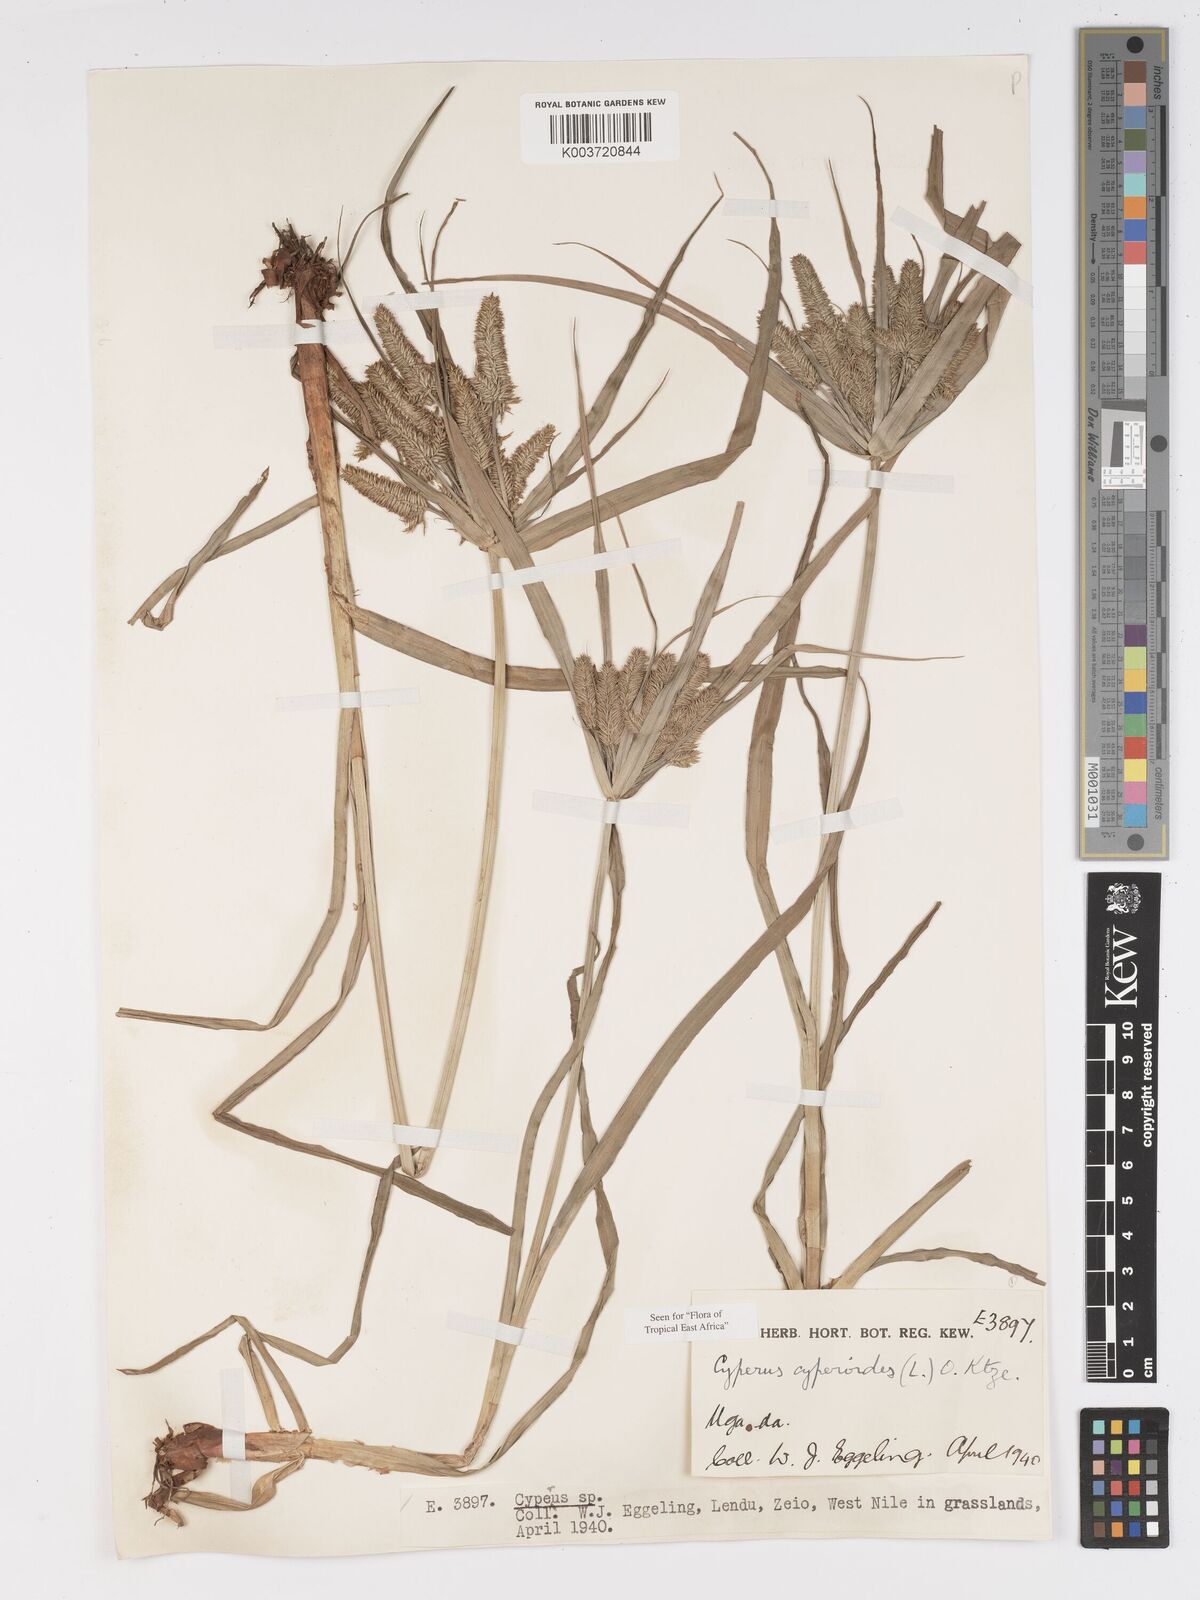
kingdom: Plantae
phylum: Tracheophyta
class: Liliopsida
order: Poales
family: Cyperaceae
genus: Cyperus
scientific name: Cyperus cyperoides
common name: Pacific island flat sedge
